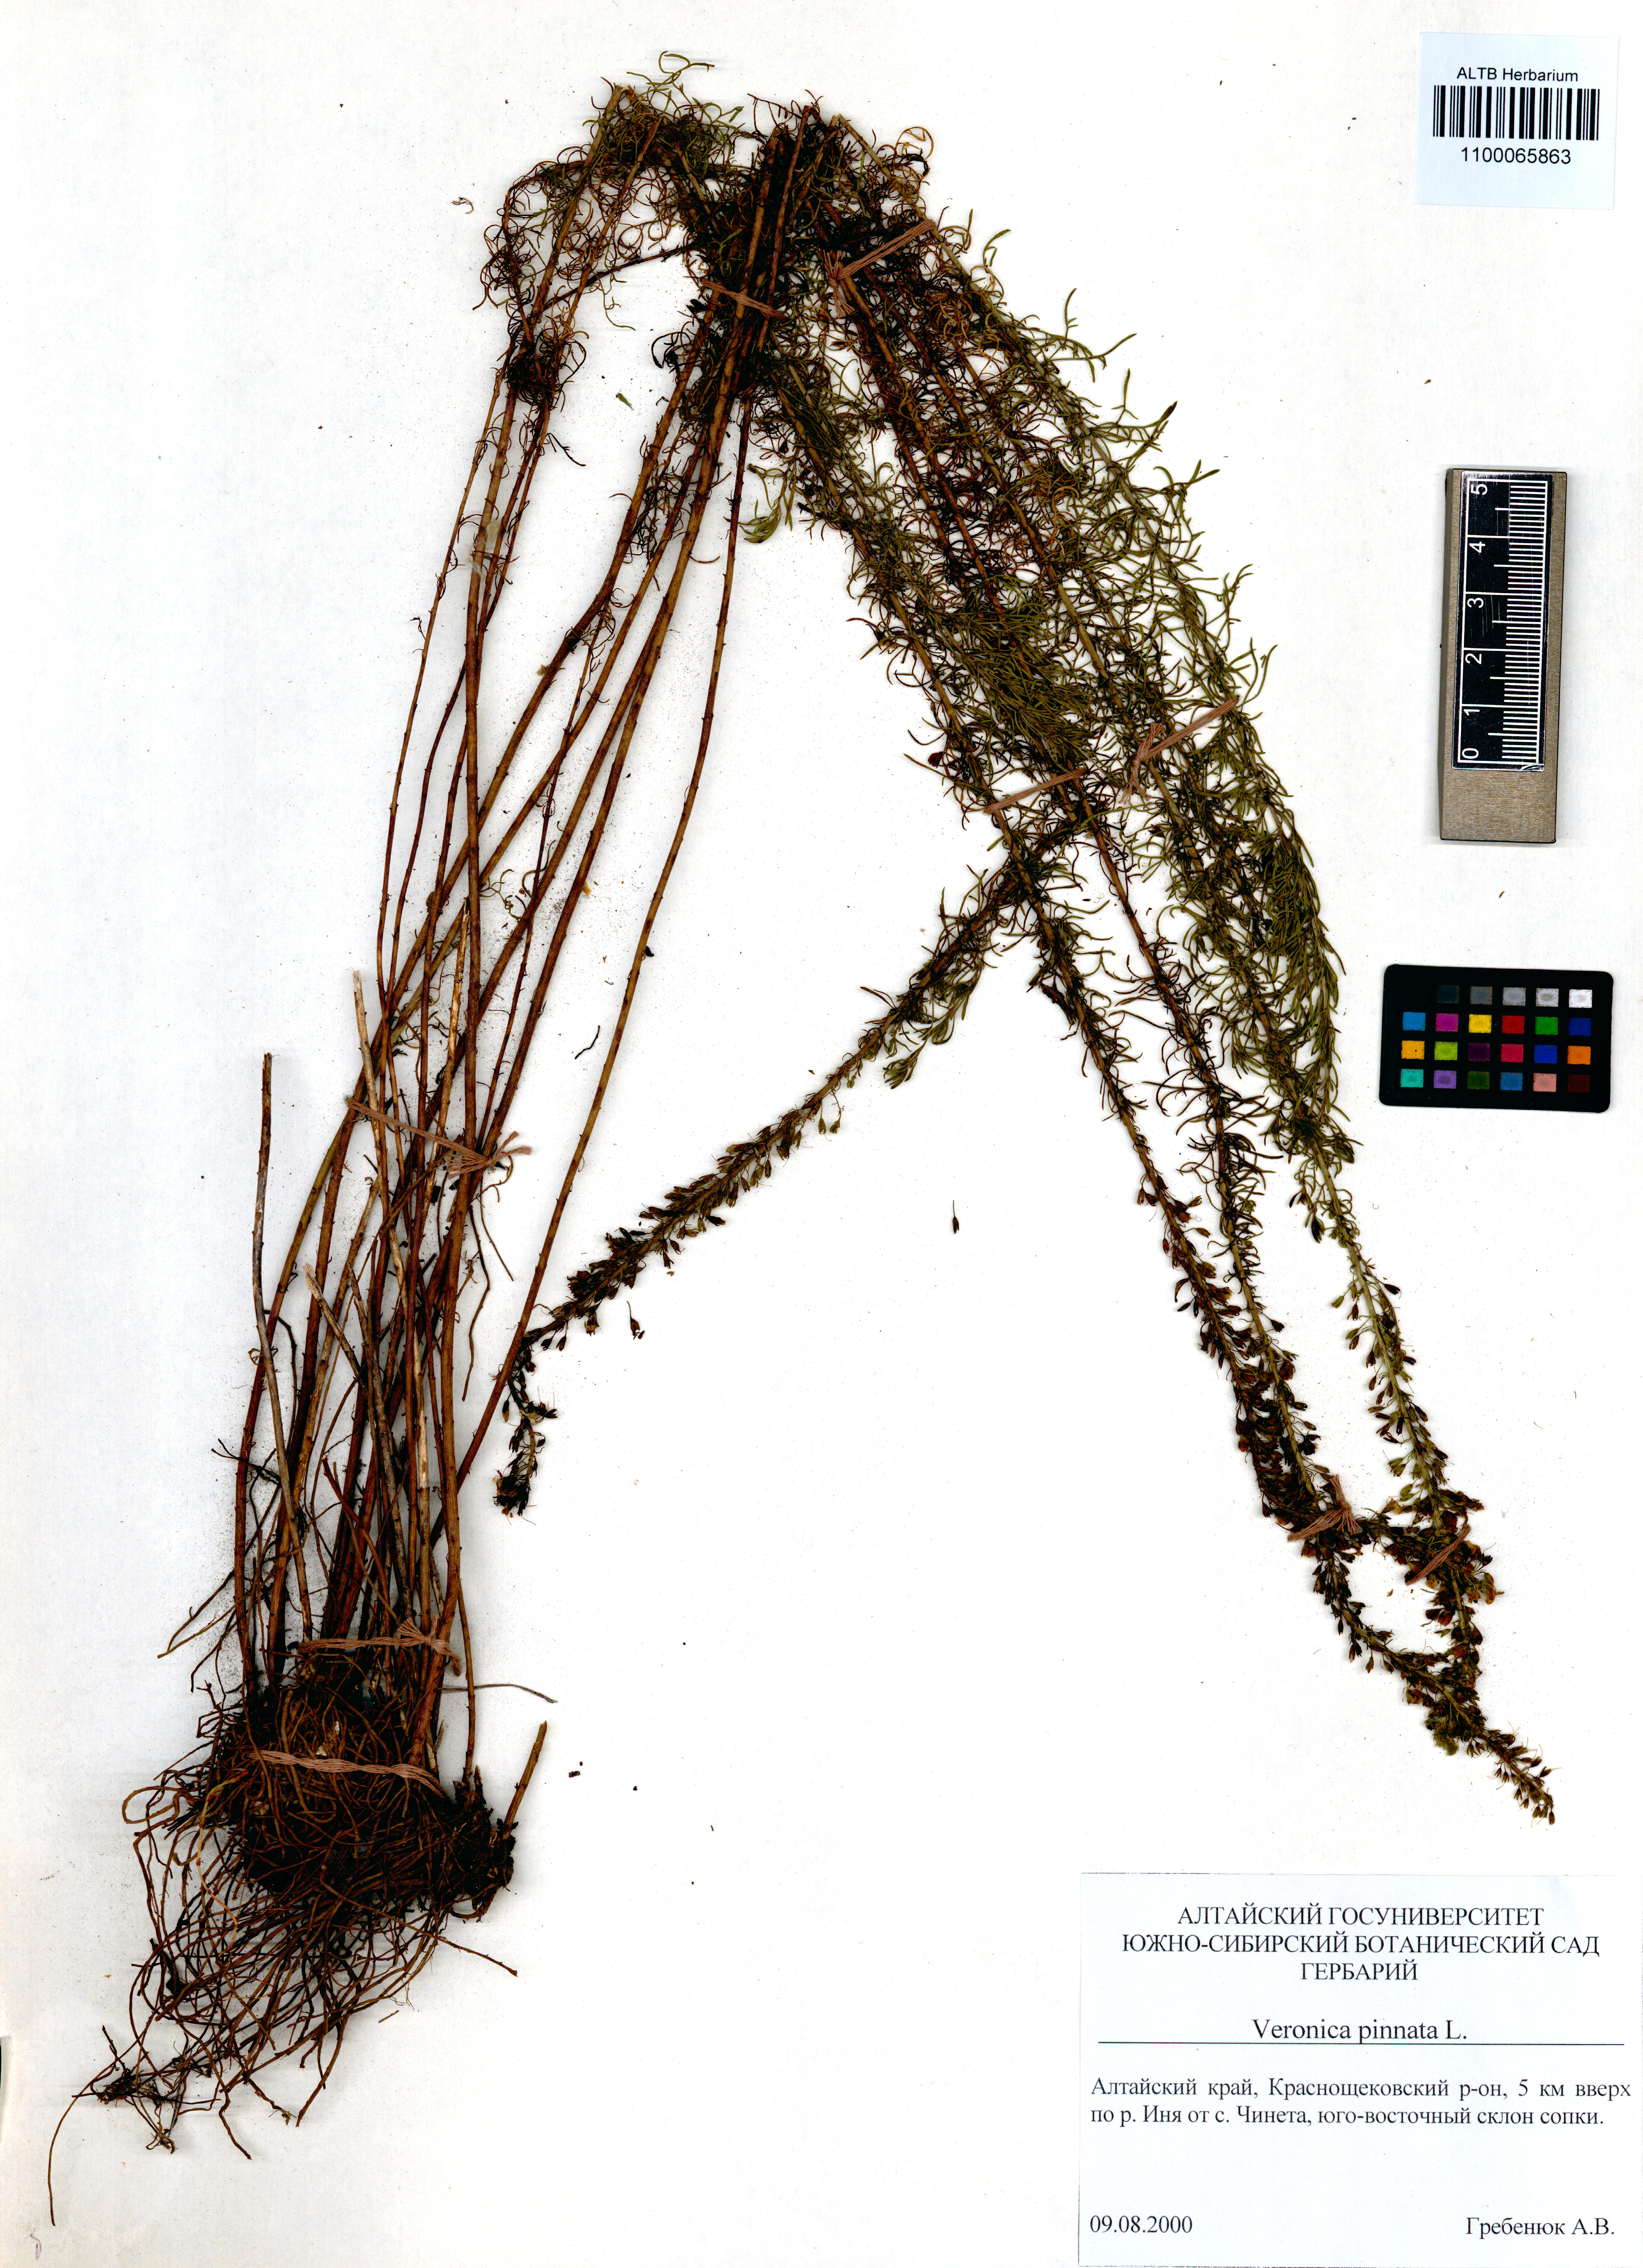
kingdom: Plantae
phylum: Tracheophyta
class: Magnoliopsida
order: Lamiales
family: Plantaginaceae
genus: Veronica
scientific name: Veronica pinnata
